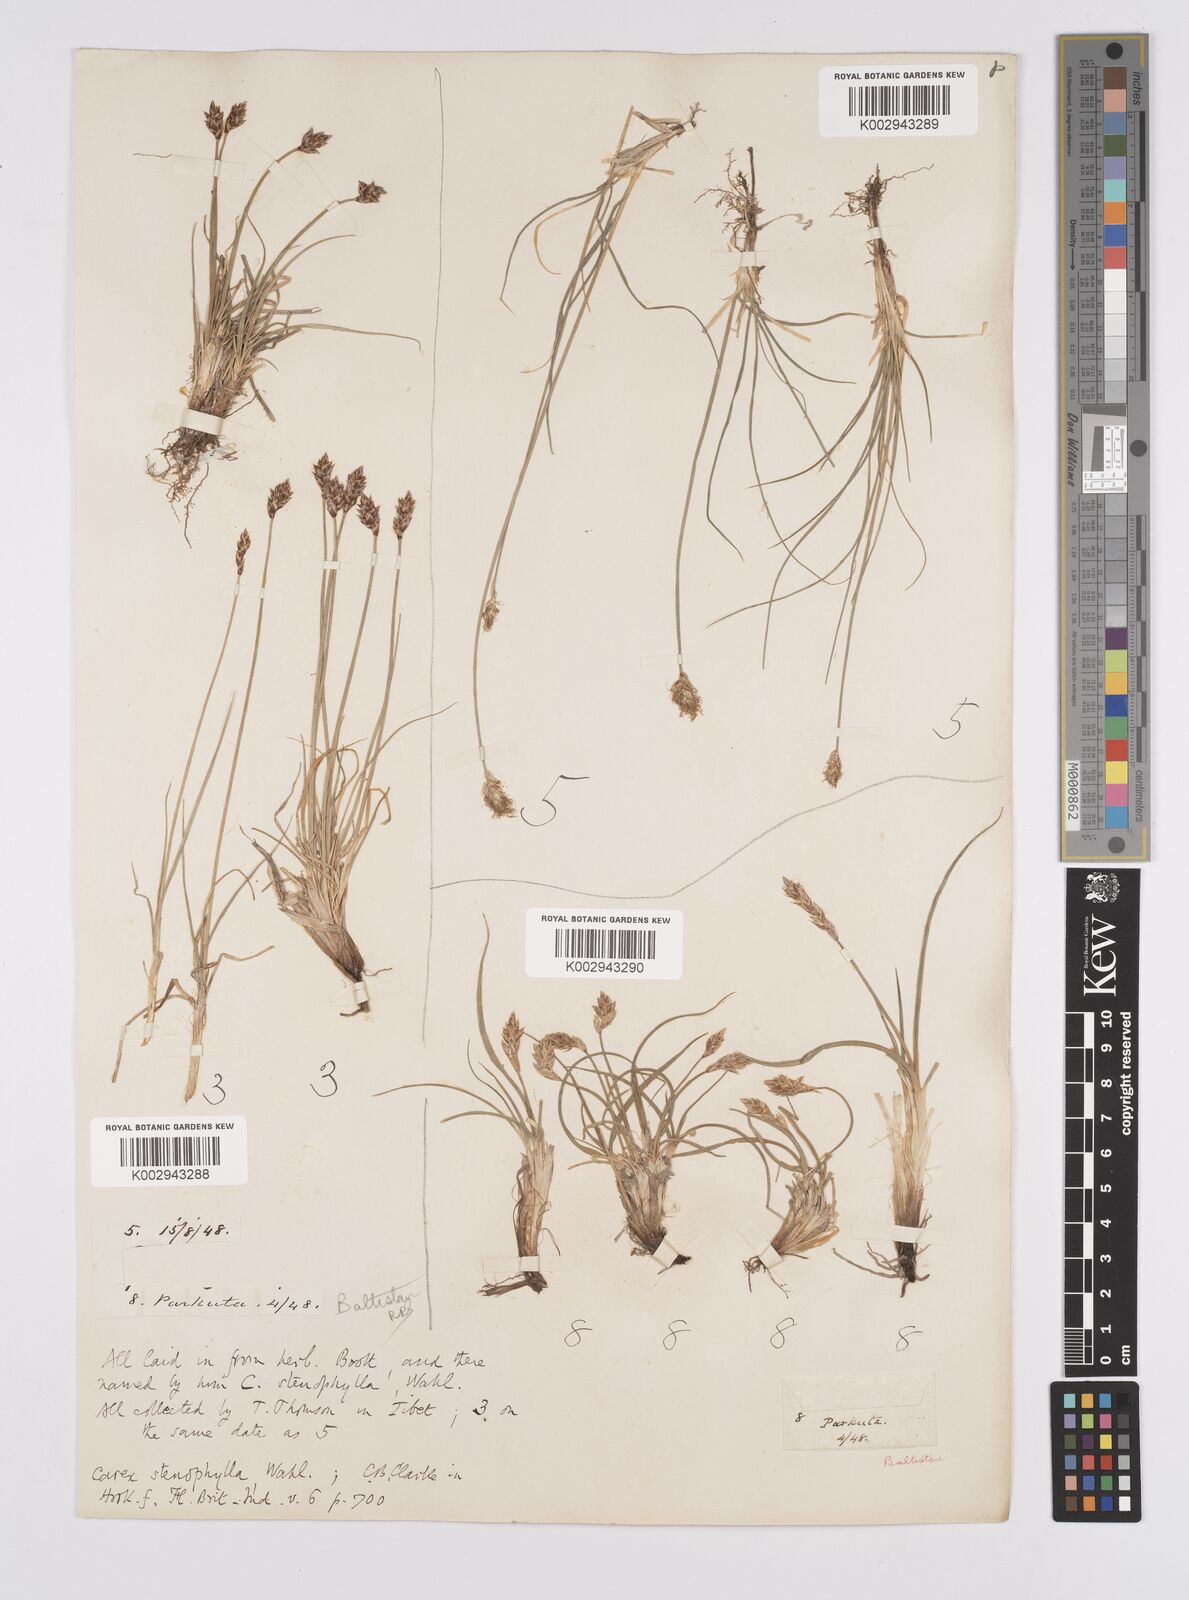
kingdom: Plantae
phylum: Tracheophyta
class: Liliopsida
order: Poales
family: Cyperaceae
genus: Carex
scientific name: Carex stenophylla
